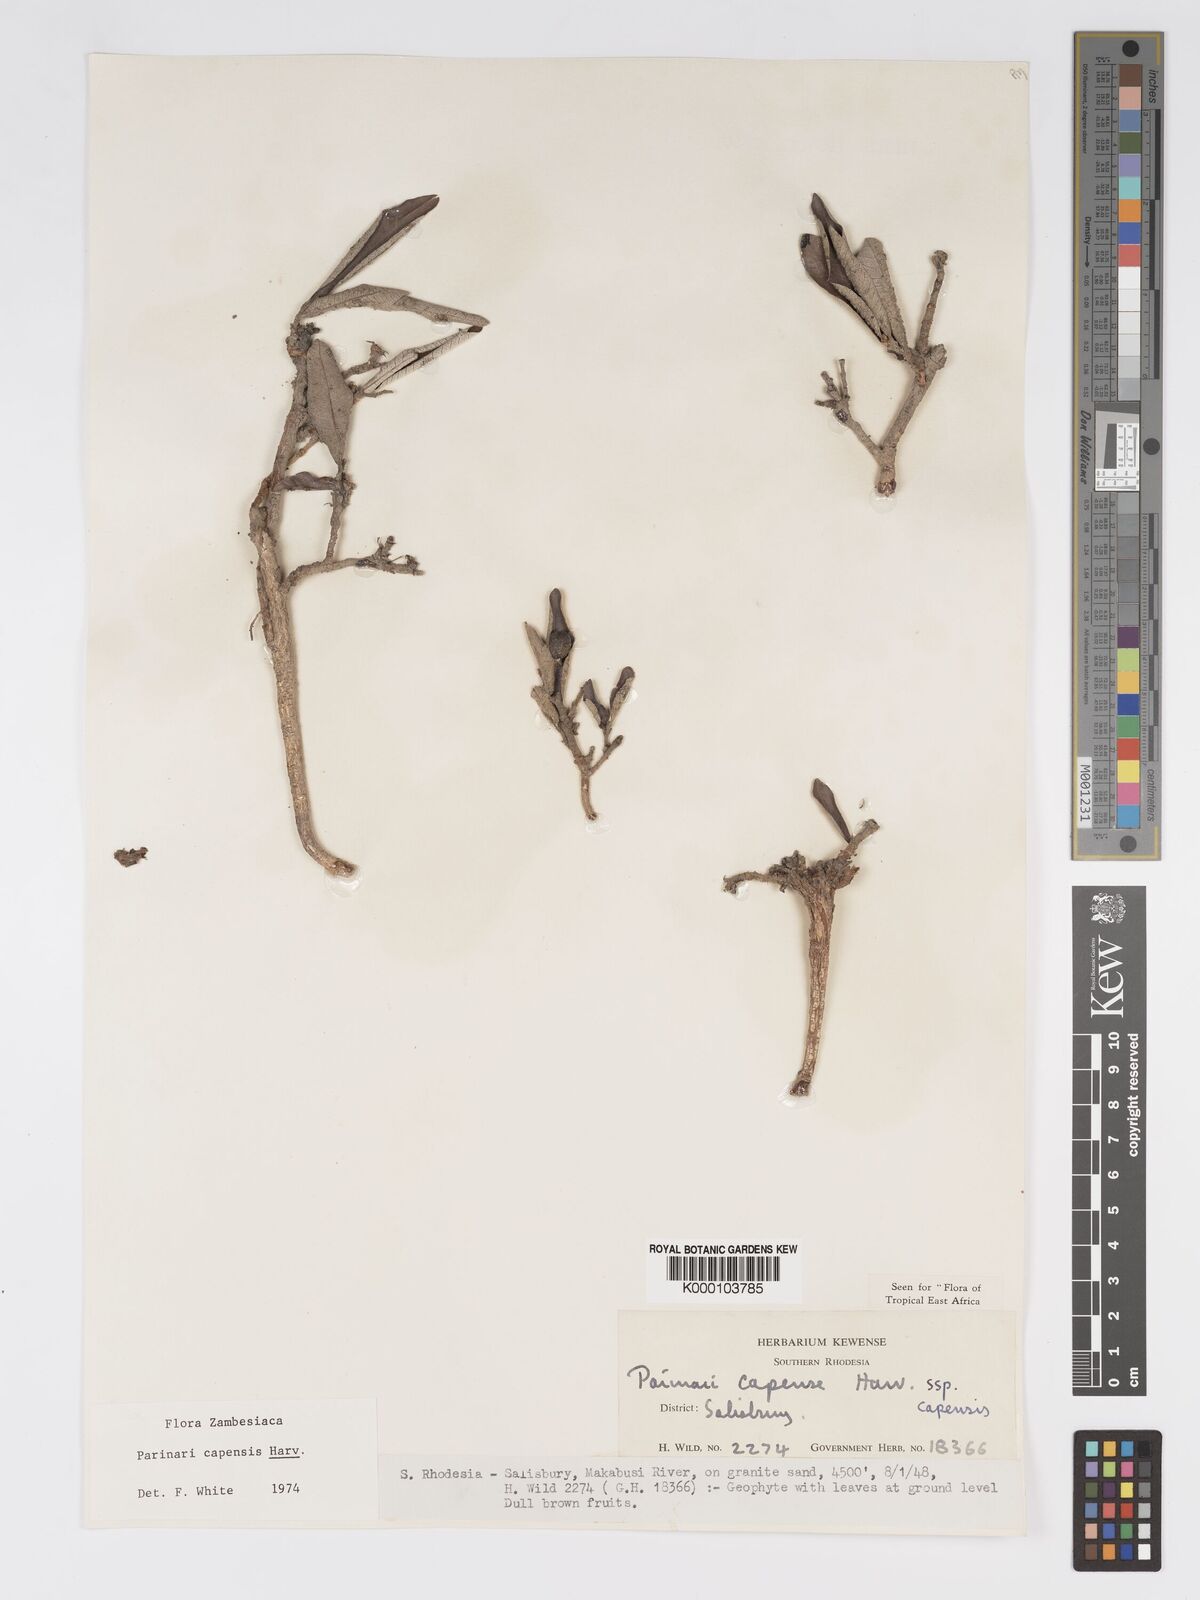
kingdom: Plantae
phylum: Tracheophyta
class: Magnoliopsida
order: Malpighiales
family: Chrysobalanaceae
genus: Parinari
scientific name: Parinari capensis
